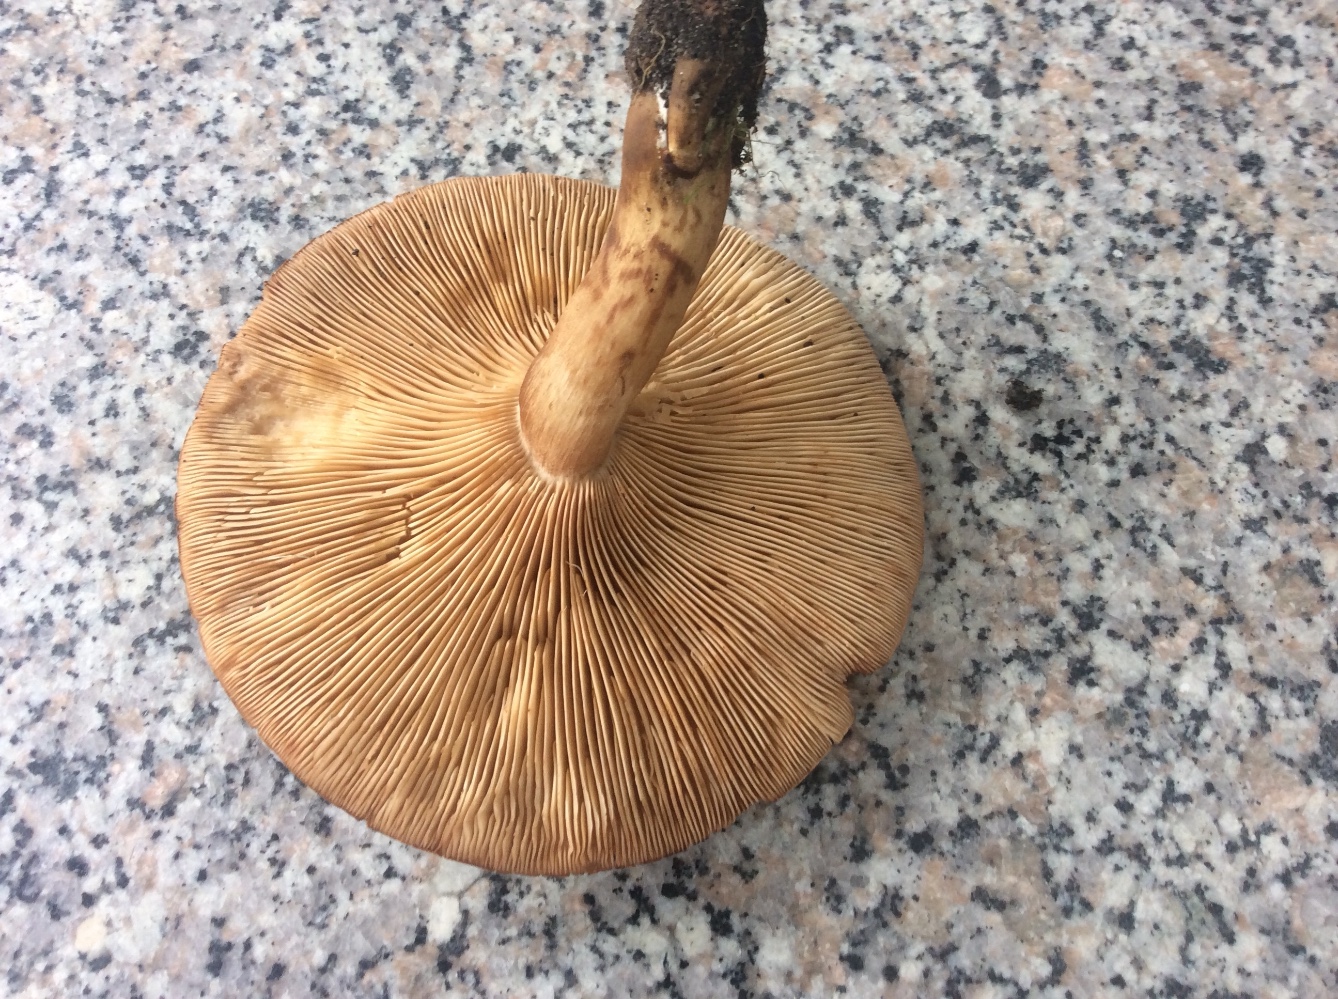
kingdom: Fungi
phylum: Basidiomycota
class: Agaricomycetes
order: Agaricales
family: Tricholomataceae
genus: Tricholoma
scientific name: Tricholoma imbricatum
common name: skællet ridderhat
